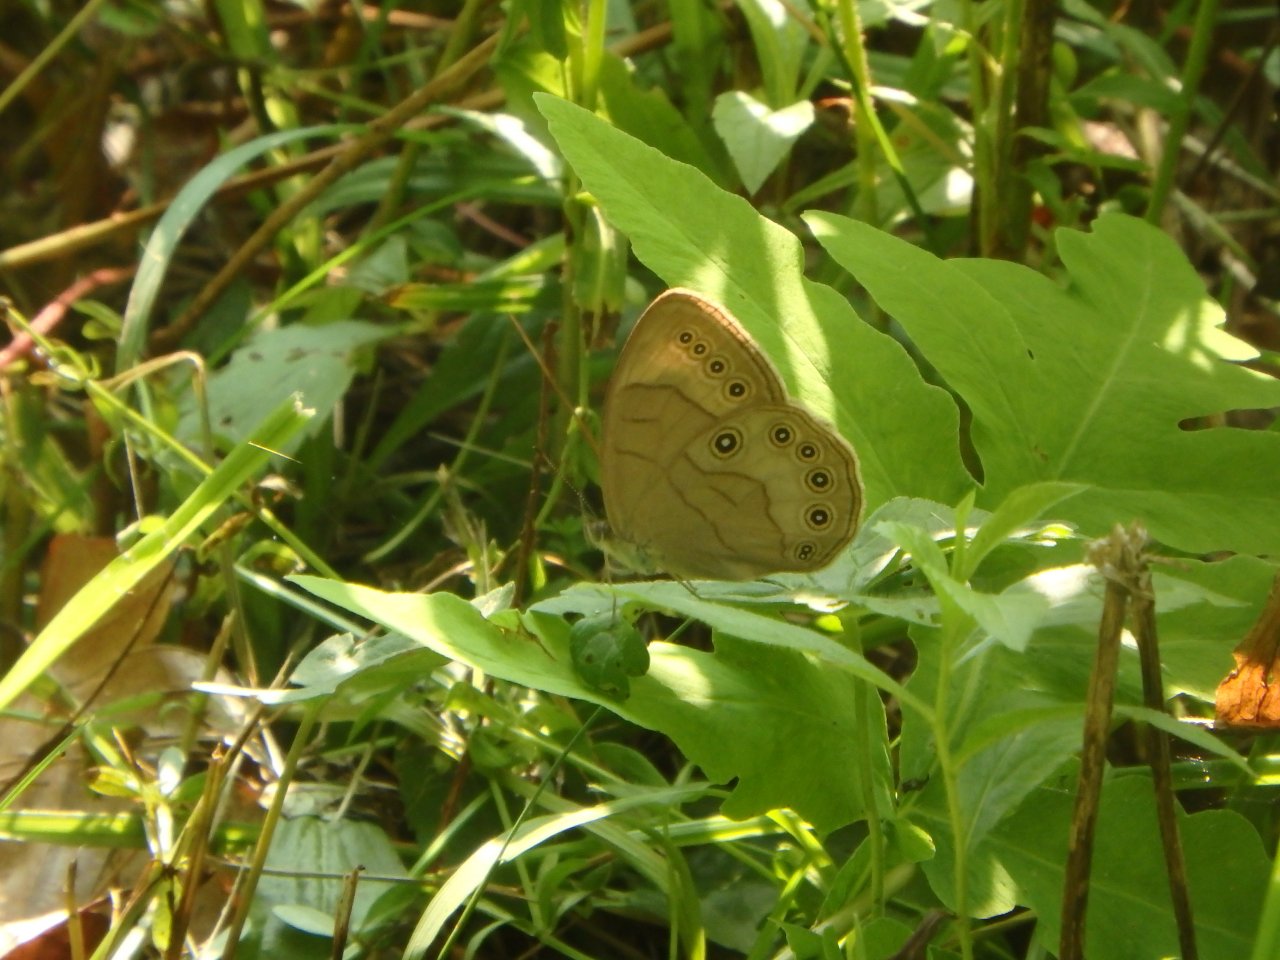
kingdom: Animalia
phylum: Arthropoda
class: Insecta
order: Lepidoptera
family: Nymphalidae
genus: Lethe
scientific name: Lethe eurydice
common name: Appalachian Eyed Brown
